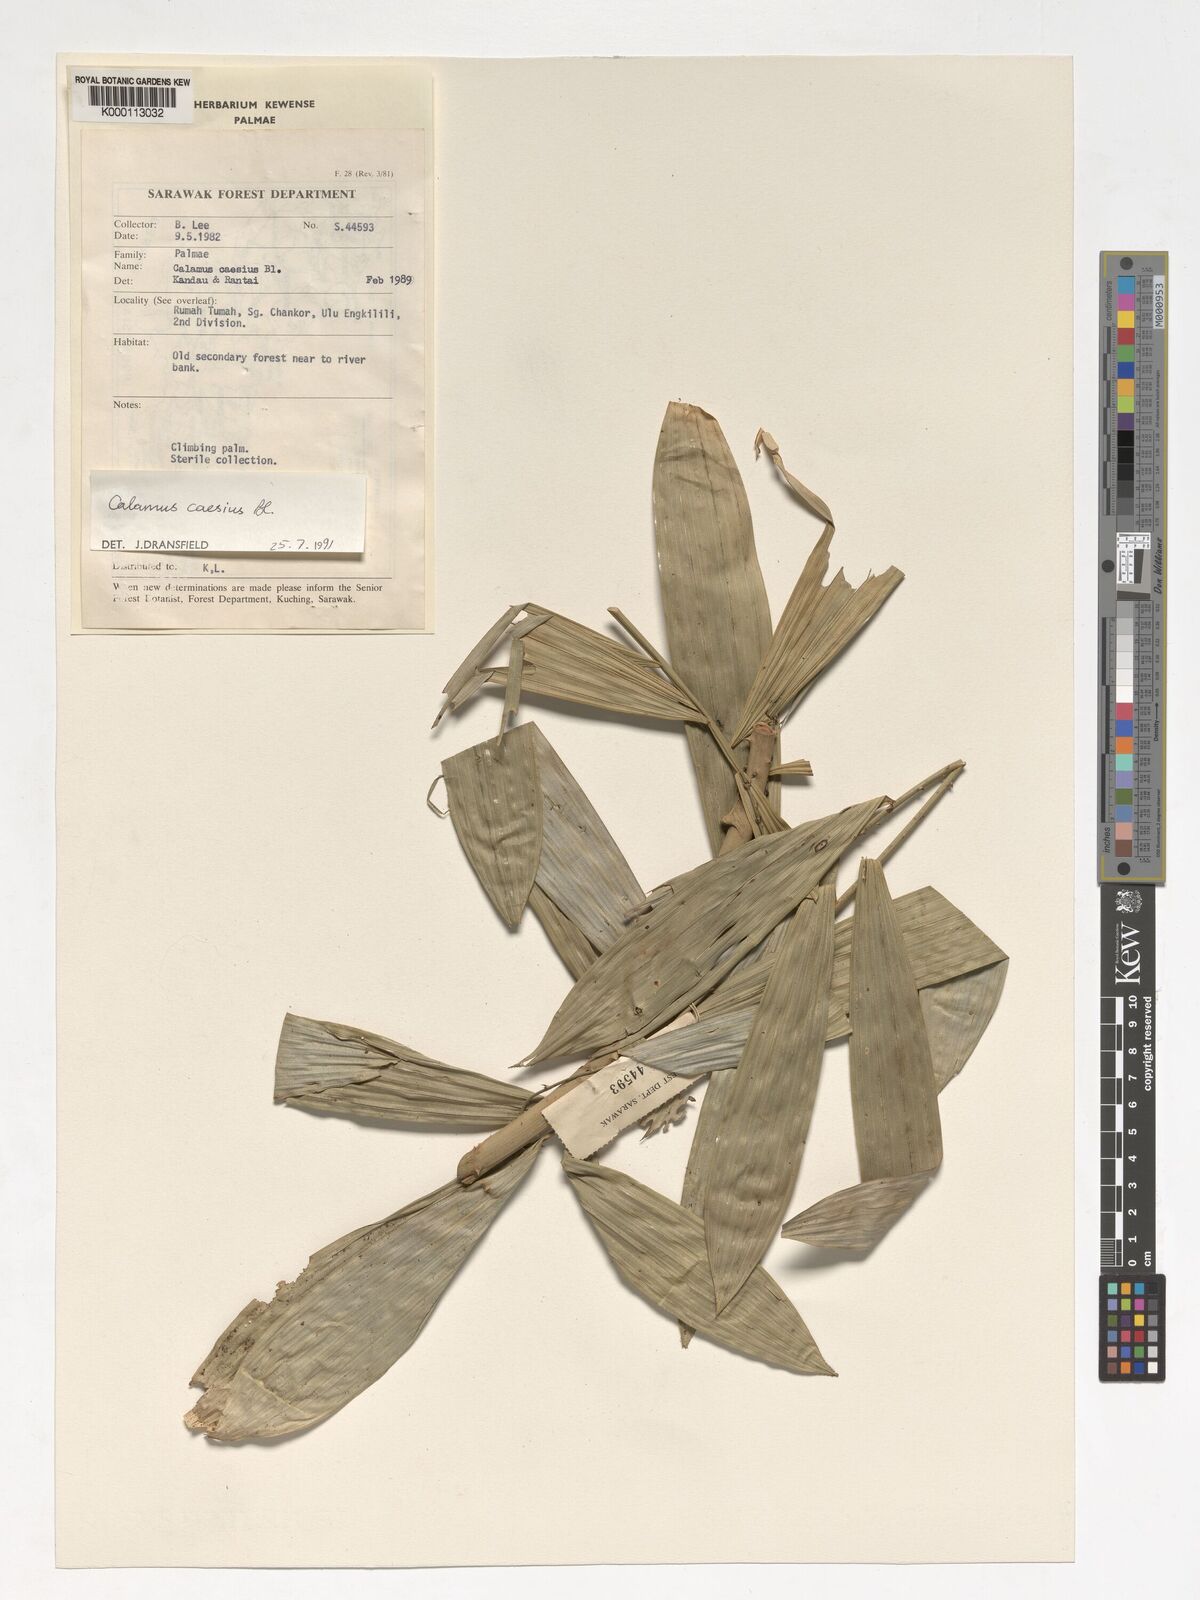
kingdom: Plantae
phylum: Tracheophyta
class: Liliopsida
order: Arecales
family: Arecaceae
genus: Calamus
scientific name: Calamus caesius
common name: Rattan palm
